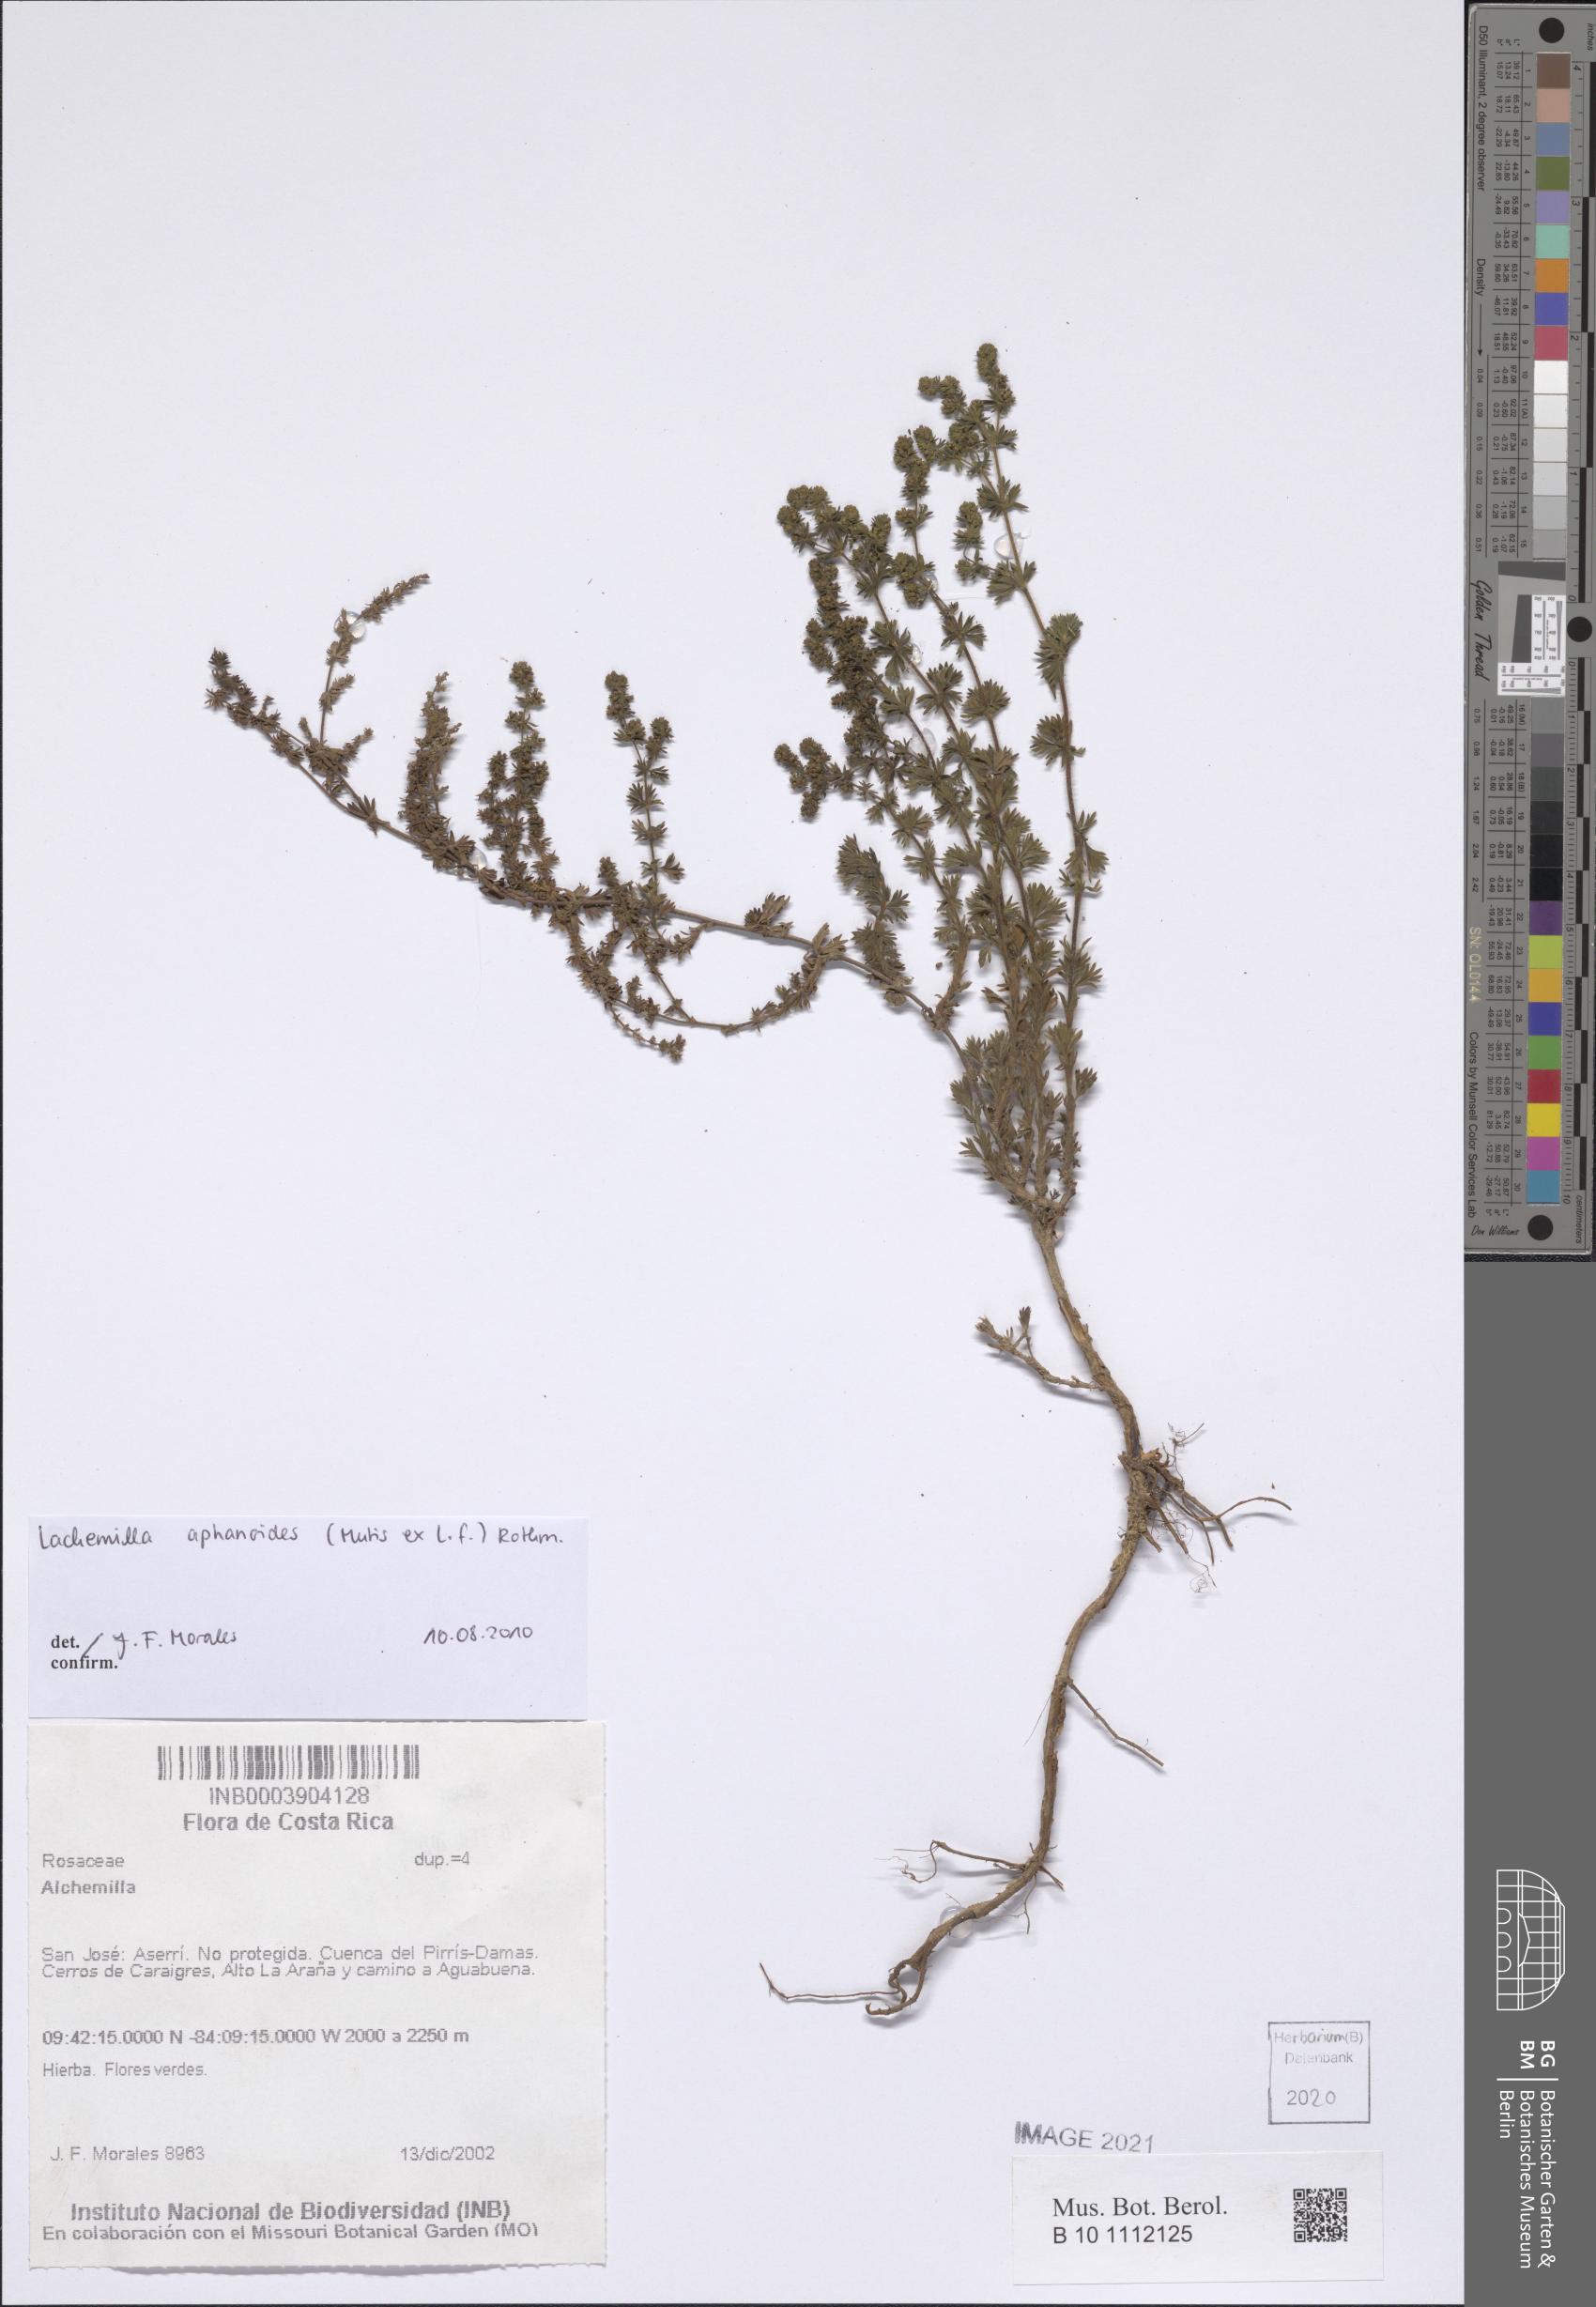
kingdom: Plantae
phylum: Tracheophyta
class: Magnoliopsida
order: Rosales
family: Rosaceae
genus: Lachemilla
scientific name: Lachemilla aphanoides
